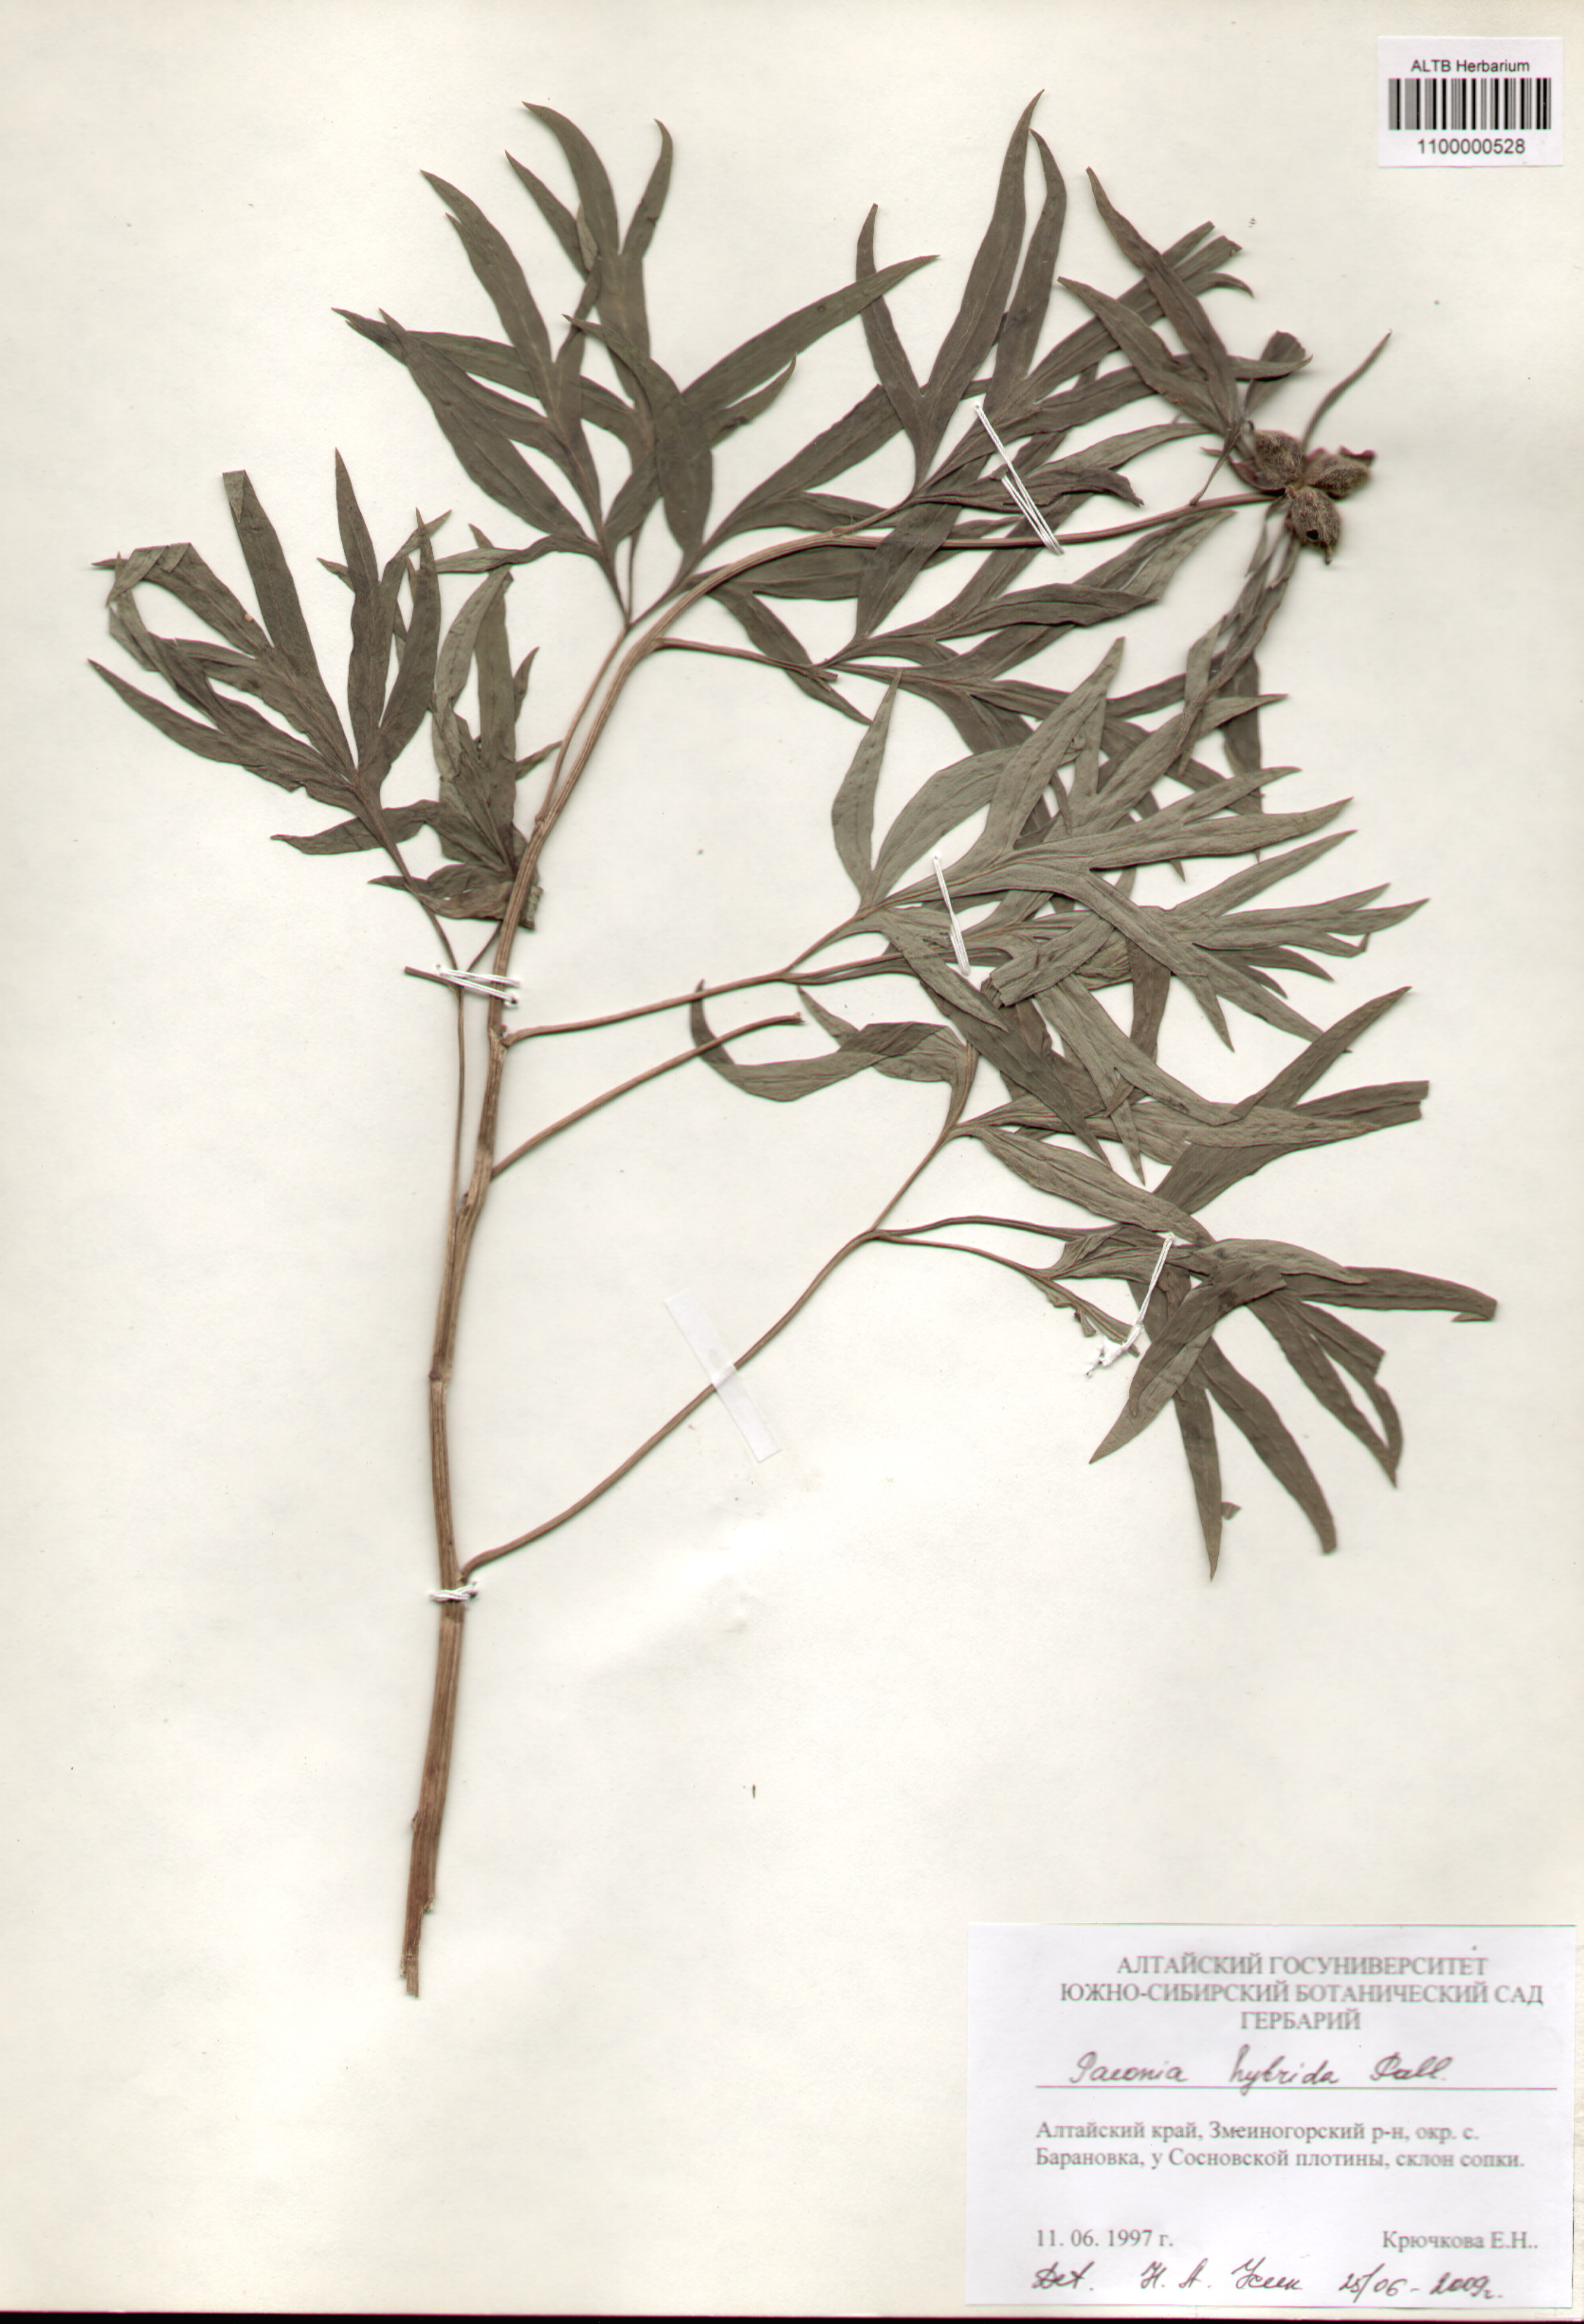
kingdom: Plantae
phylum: Tracheophyta
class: Magnoliopsida
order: Saxifragales
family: Paeoniaceae
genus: Paeonia
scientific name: Paeonia
